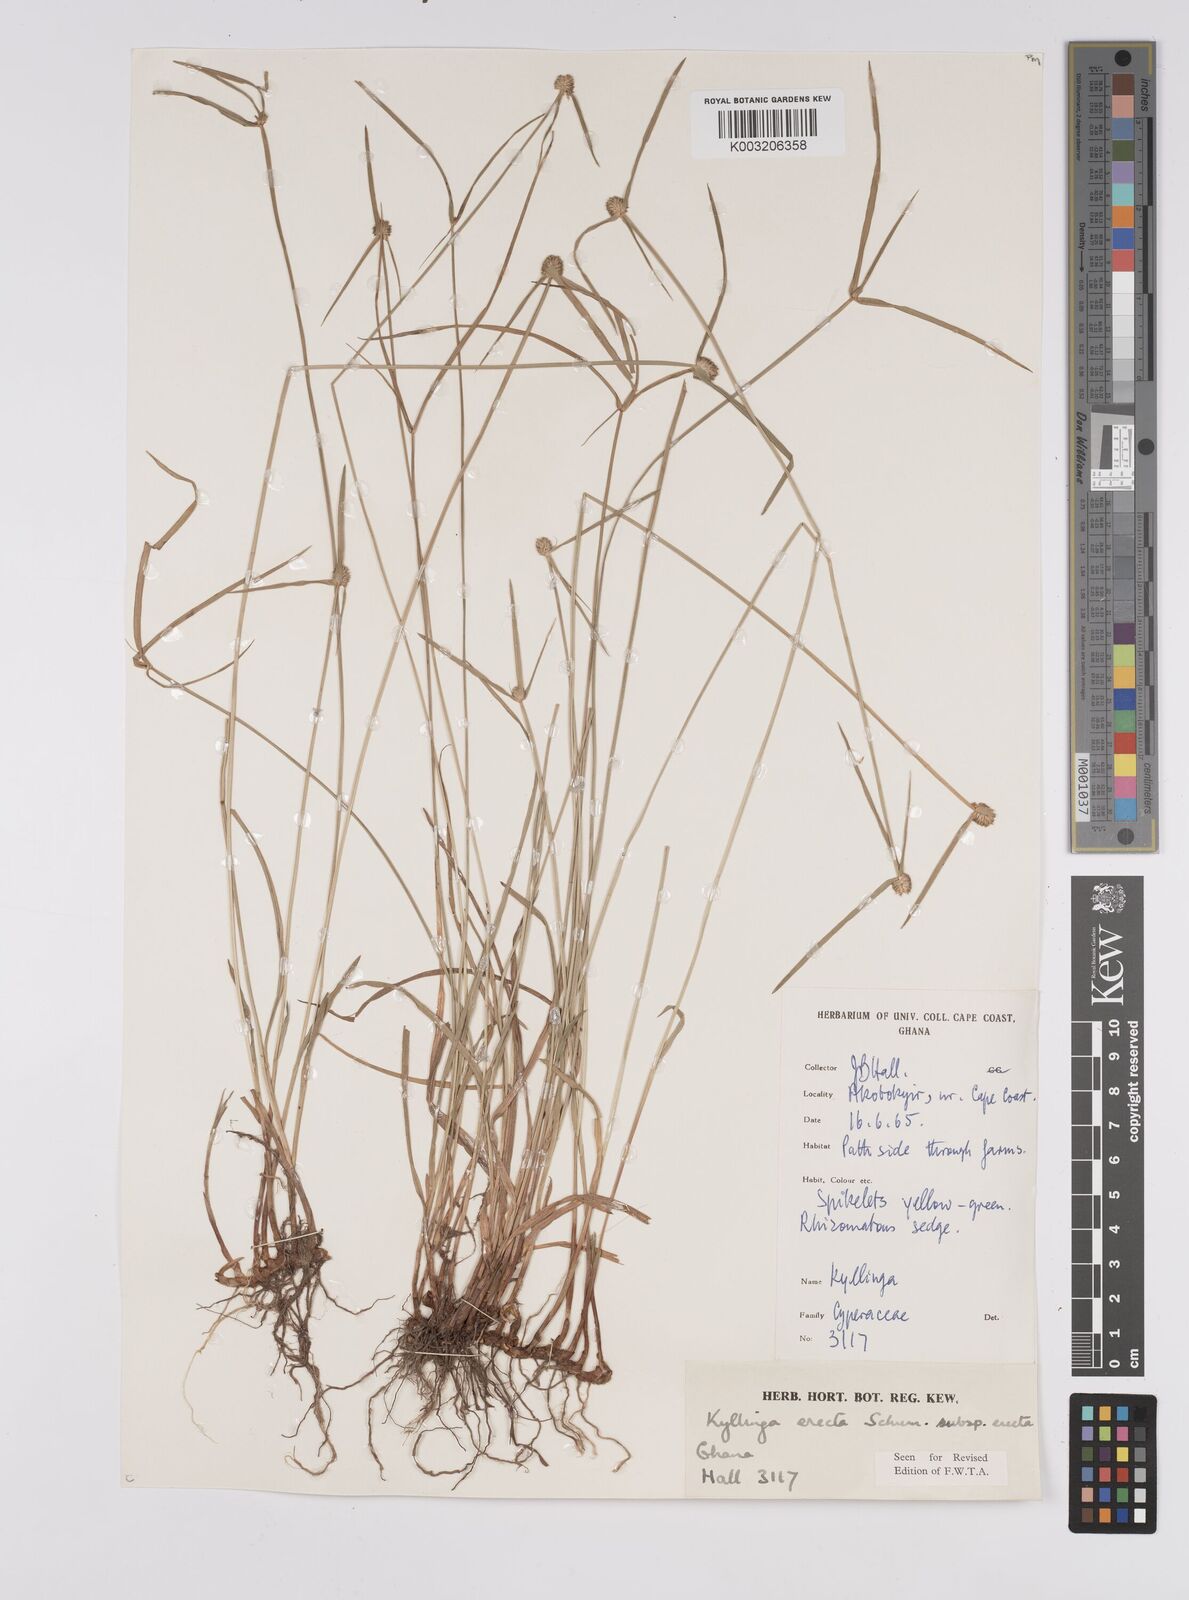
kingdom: Plantae
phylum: Tracheophyta
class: Liliopsida
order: Poales
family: Cyperaceae
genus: Cyperus
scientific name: Cyperus erectus
